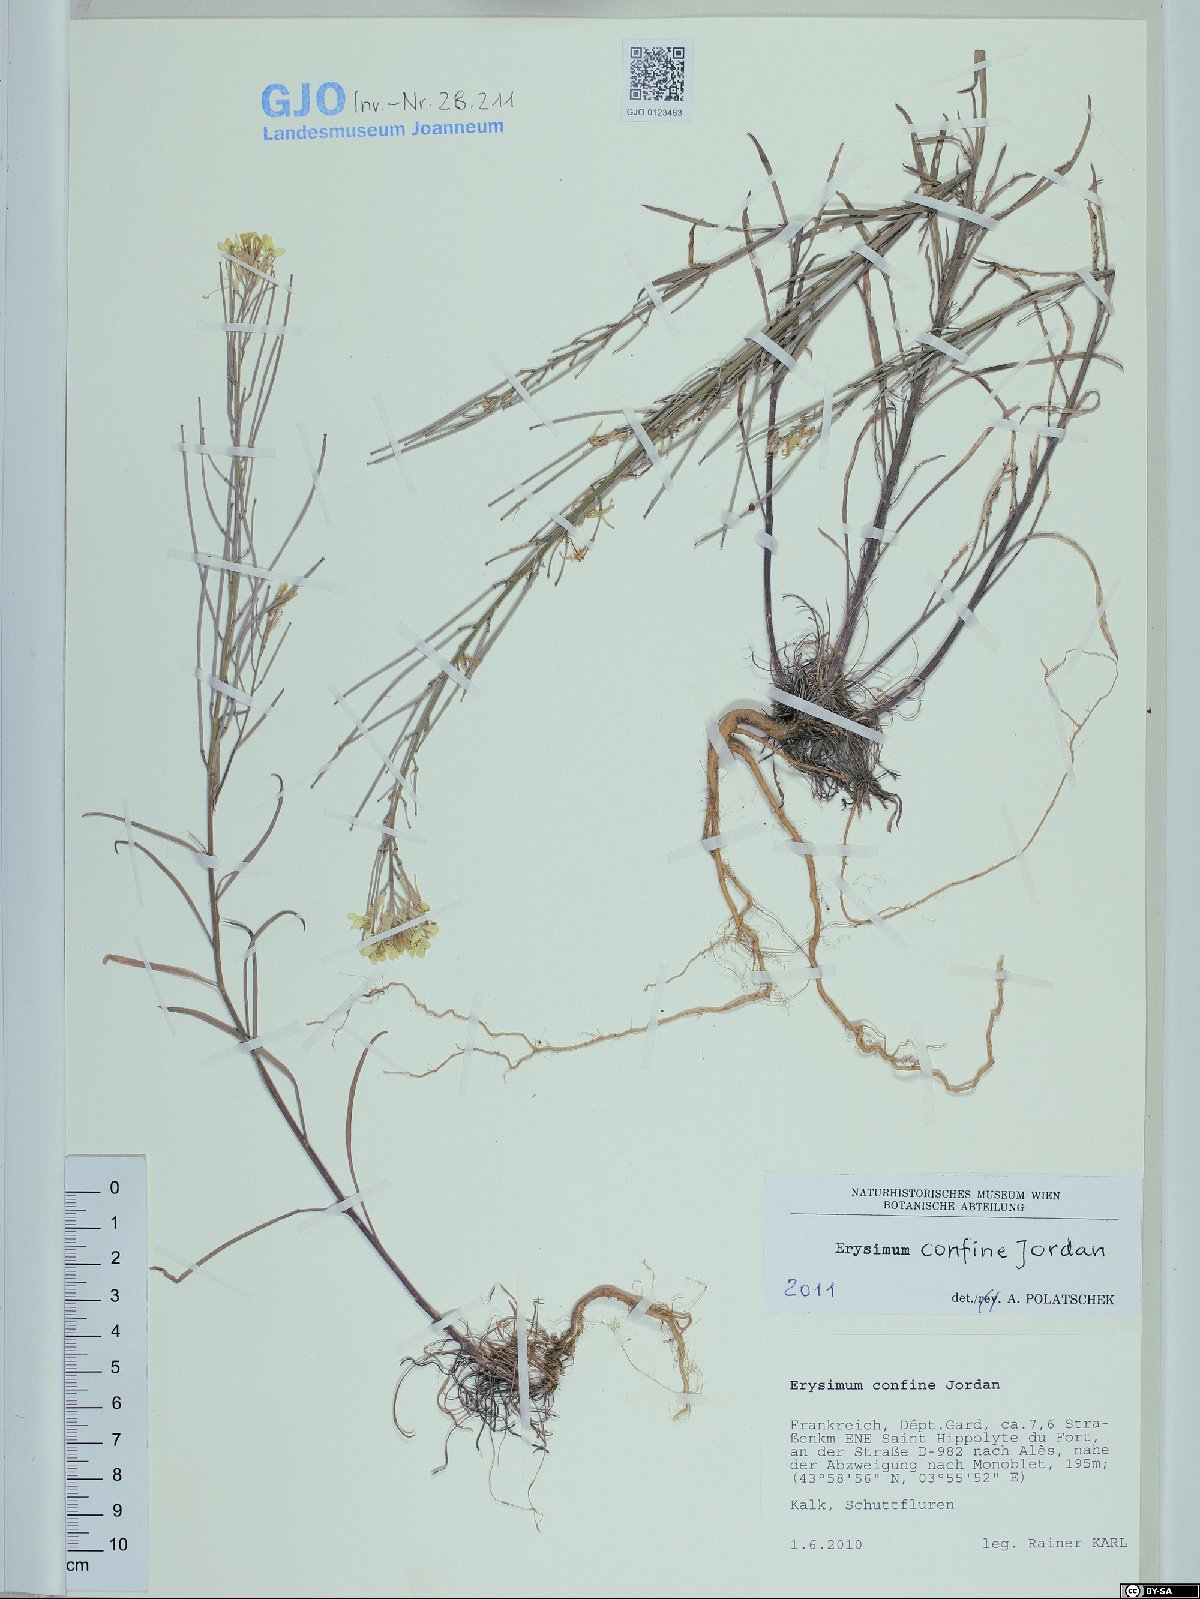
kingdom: Plantae
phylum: Tracheophyta
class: Magnoliopsida
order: Brassicales
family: Brassicaceae
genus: Erysimum
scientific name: Erysimum confine
